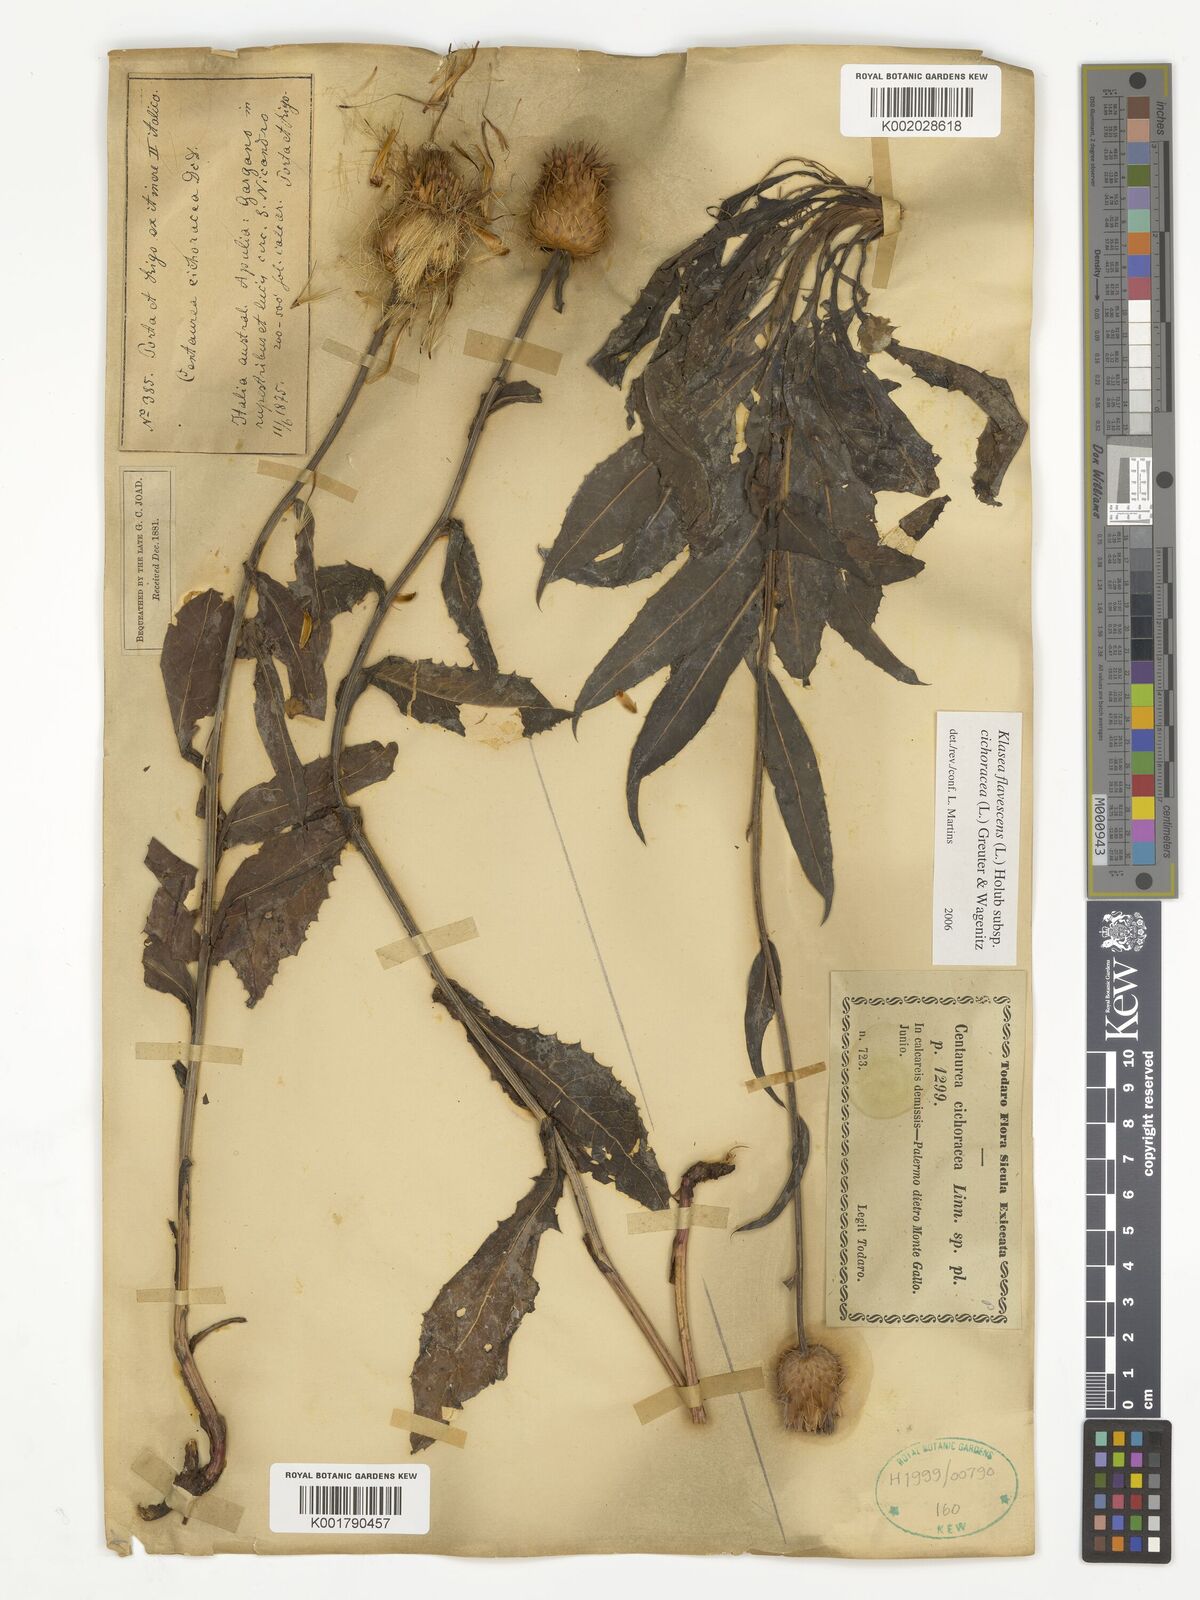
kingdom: Plantae
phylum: Tracheophyta
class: Magnoliopsida
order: Asterales
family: Asteraceae
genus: Klasea
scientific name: Klasea flavescens
